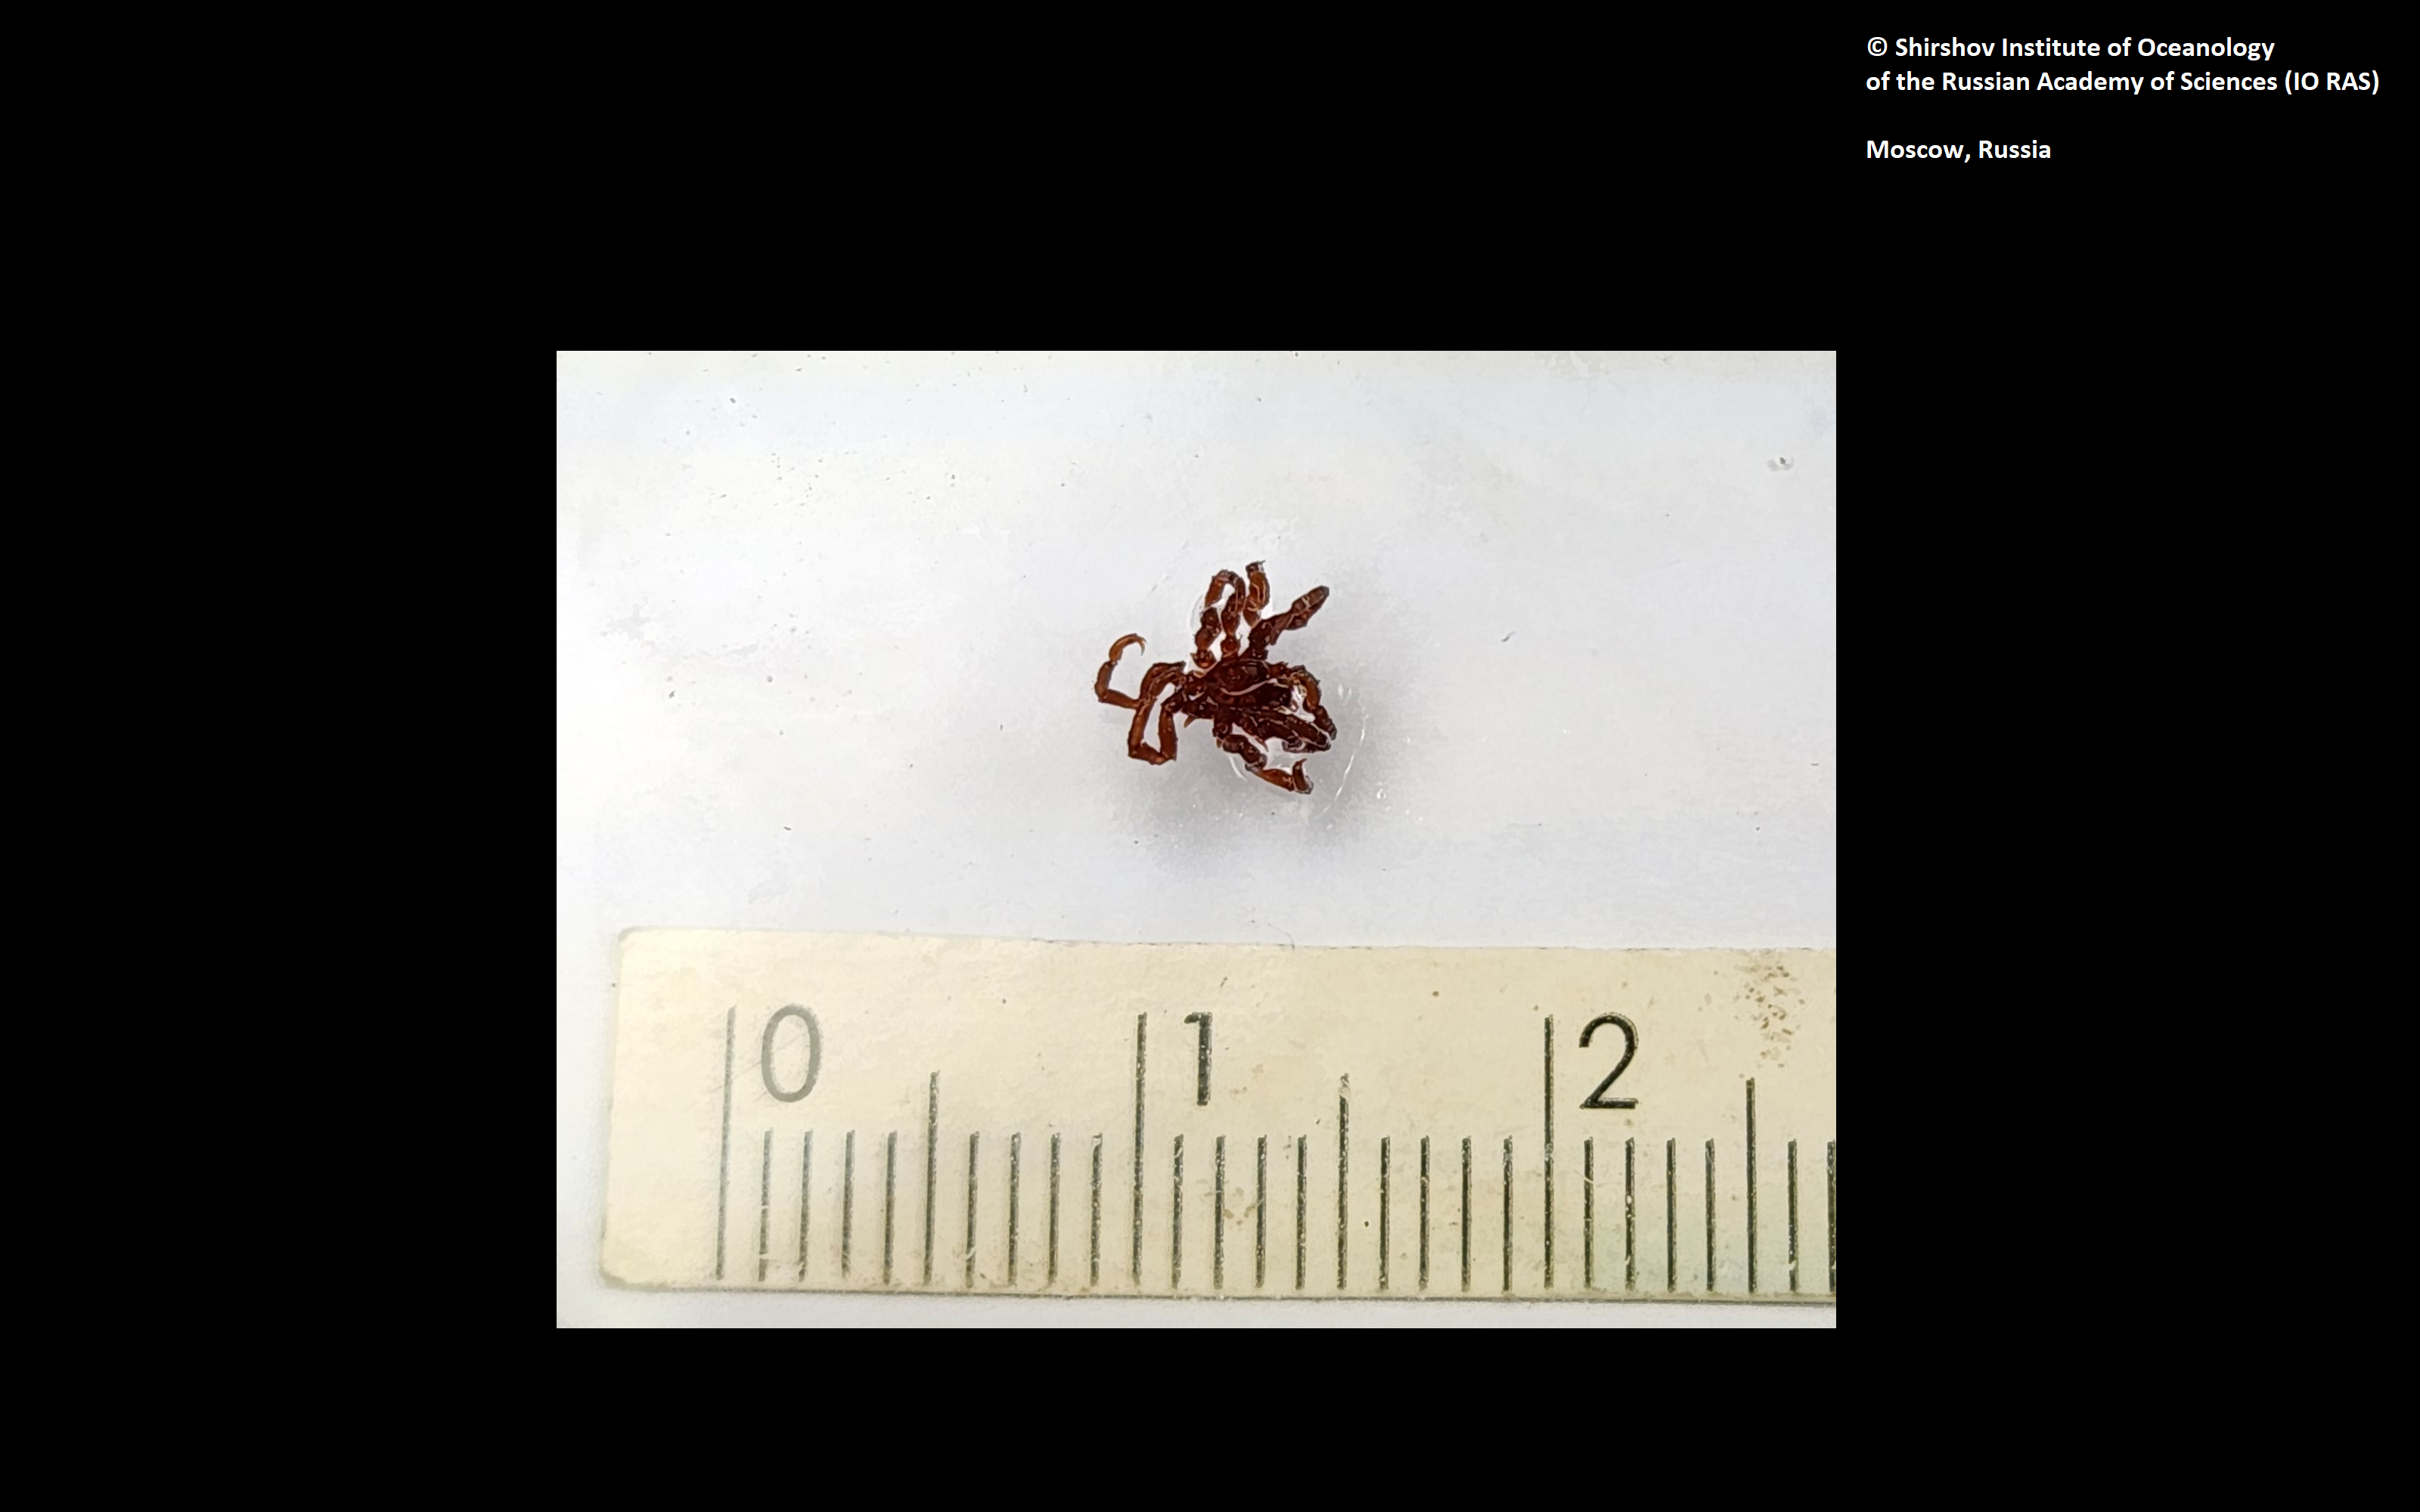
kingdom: Animalia
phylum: Arthropoda
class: Pycnogonida
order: Pantopoda
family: Ammotheidae
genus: Achelia
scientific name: Achelia alaskensis
